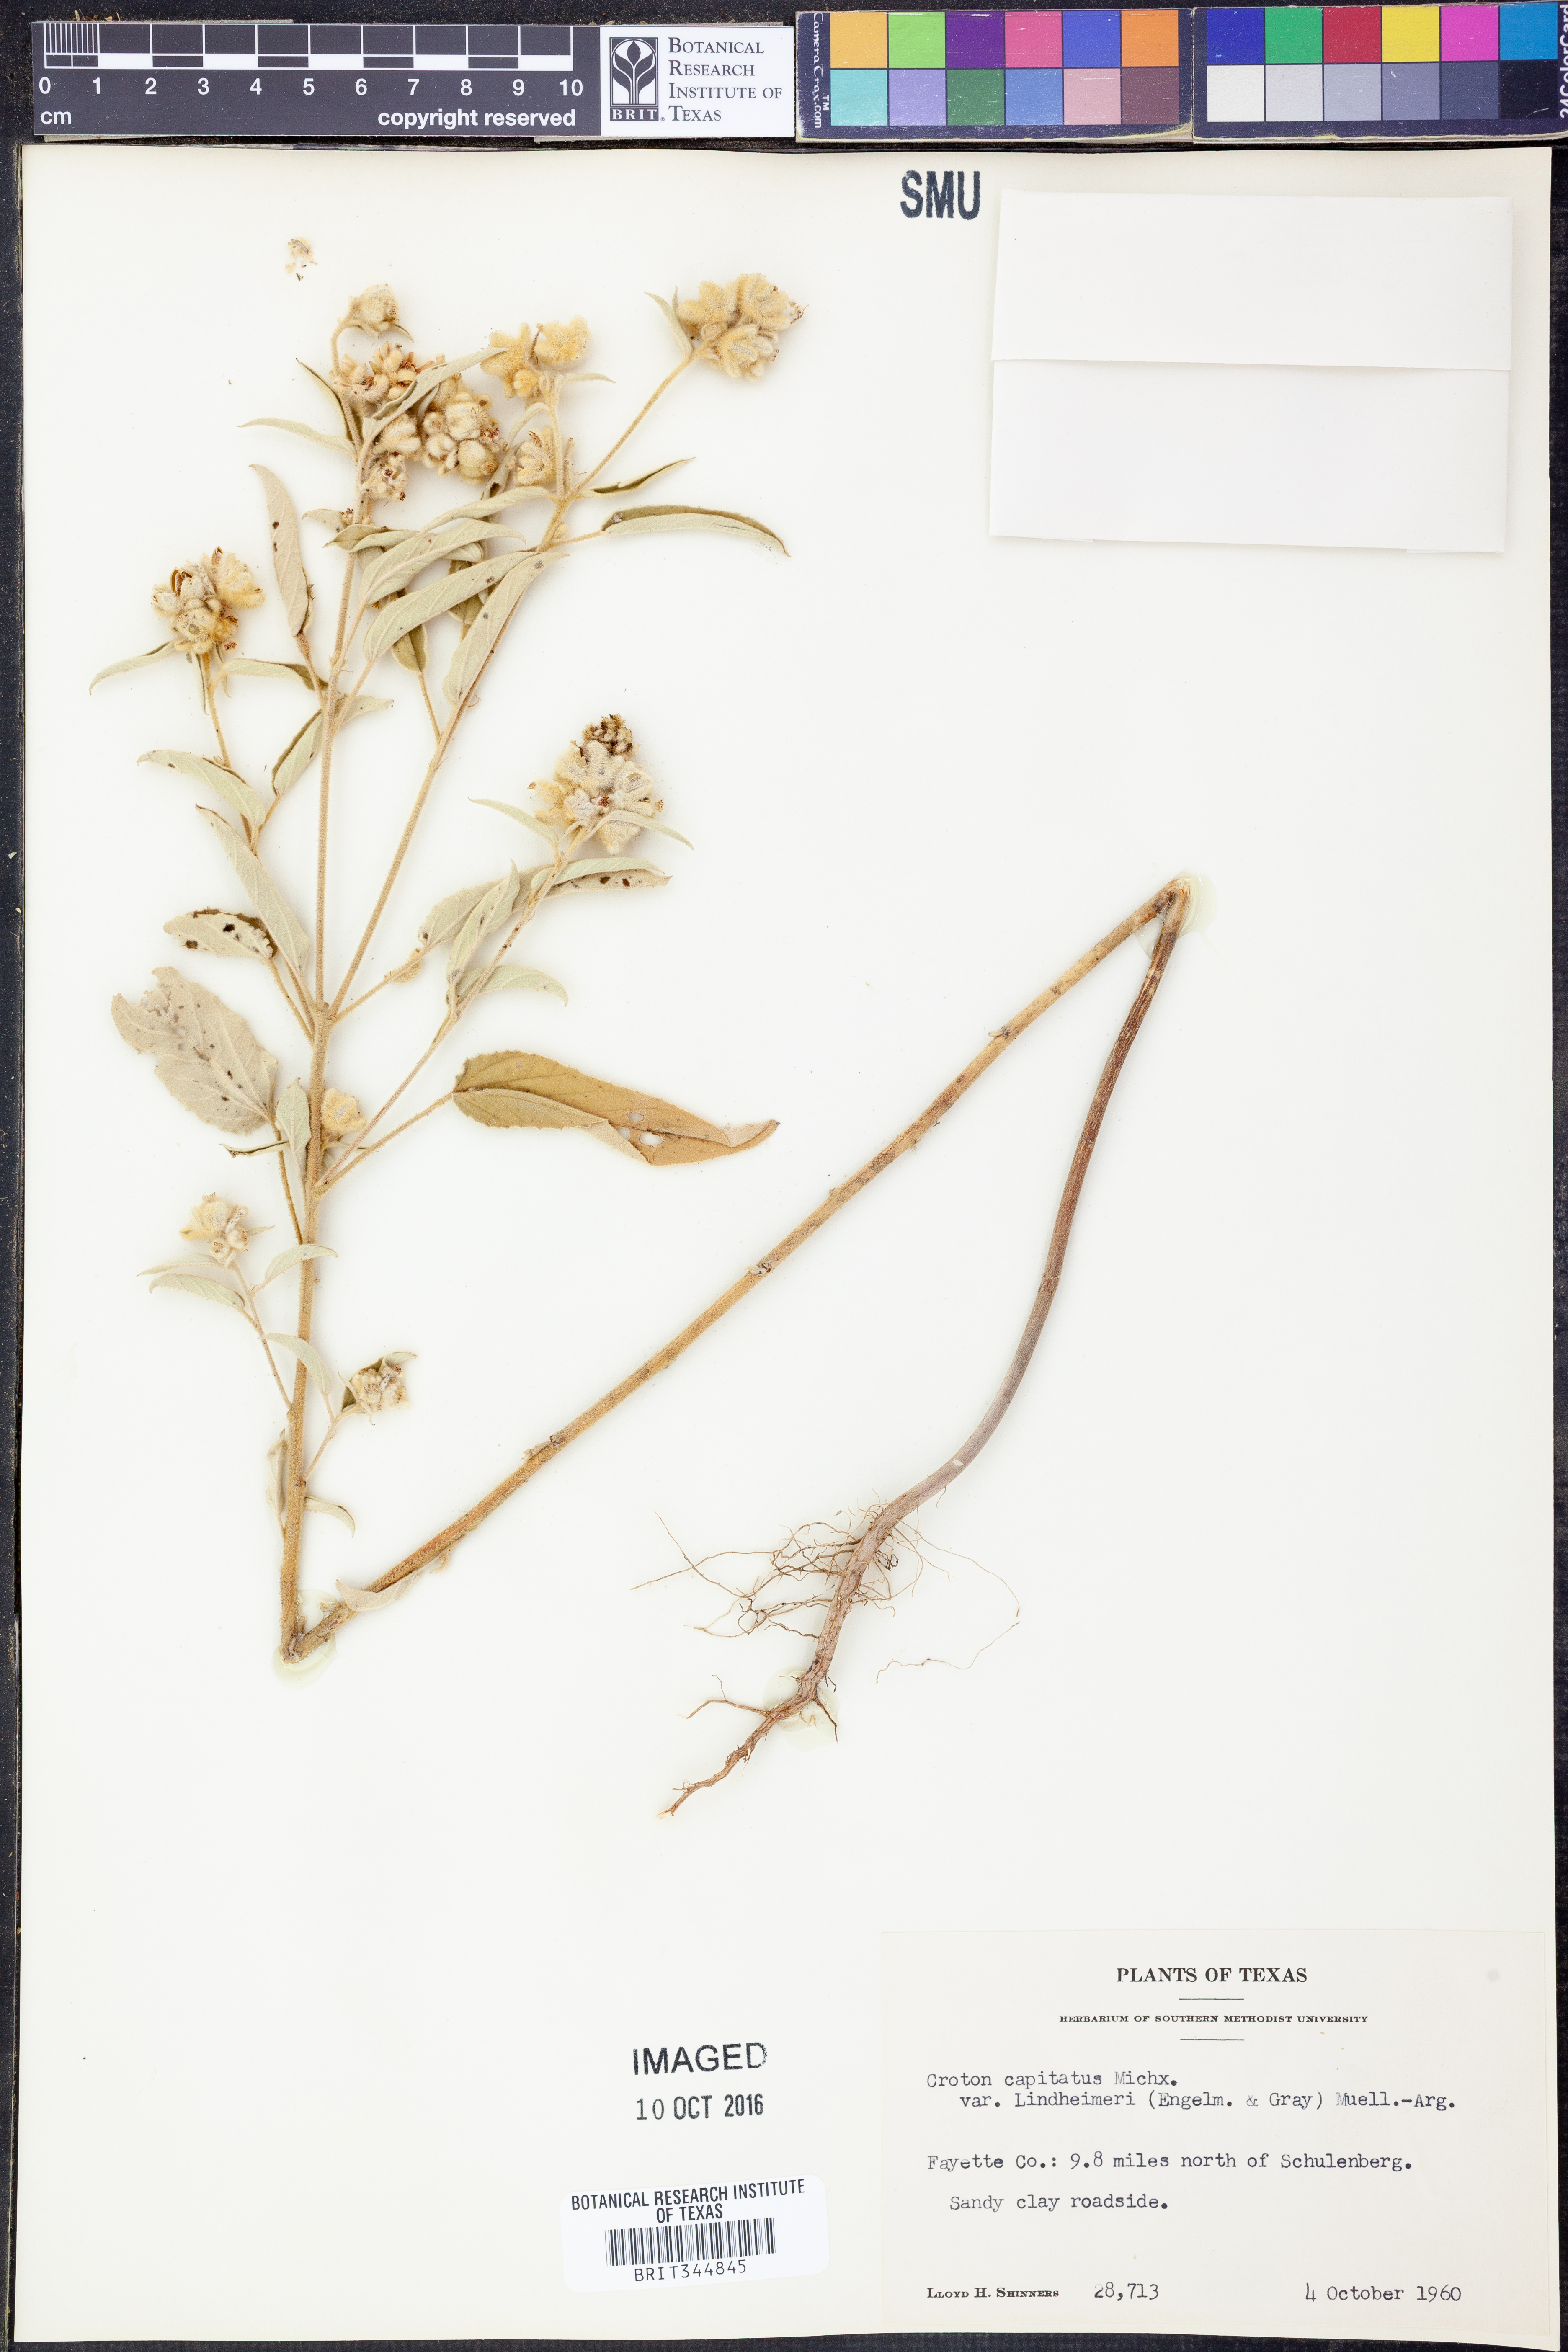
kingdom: Plantae
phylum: Tracheophyta
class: Magnoliopsida
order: Malpighiales
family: Euphorbiaceae
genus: Croton
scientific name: Croton lindheimeri
